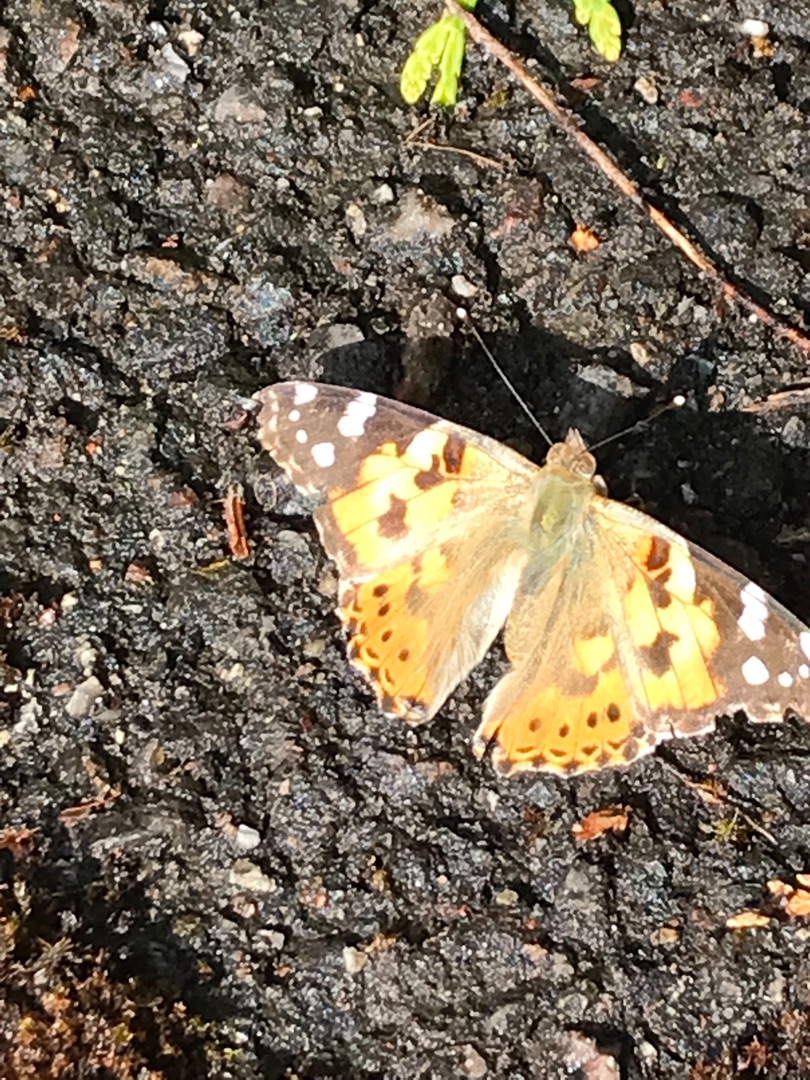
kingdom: Animalia
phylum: Arthropoda
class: Insecta
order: Lepidoptera
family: Nymphalidae
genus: Vanessa
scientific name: Vanessa cardui
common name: Tidselsommerfugl
